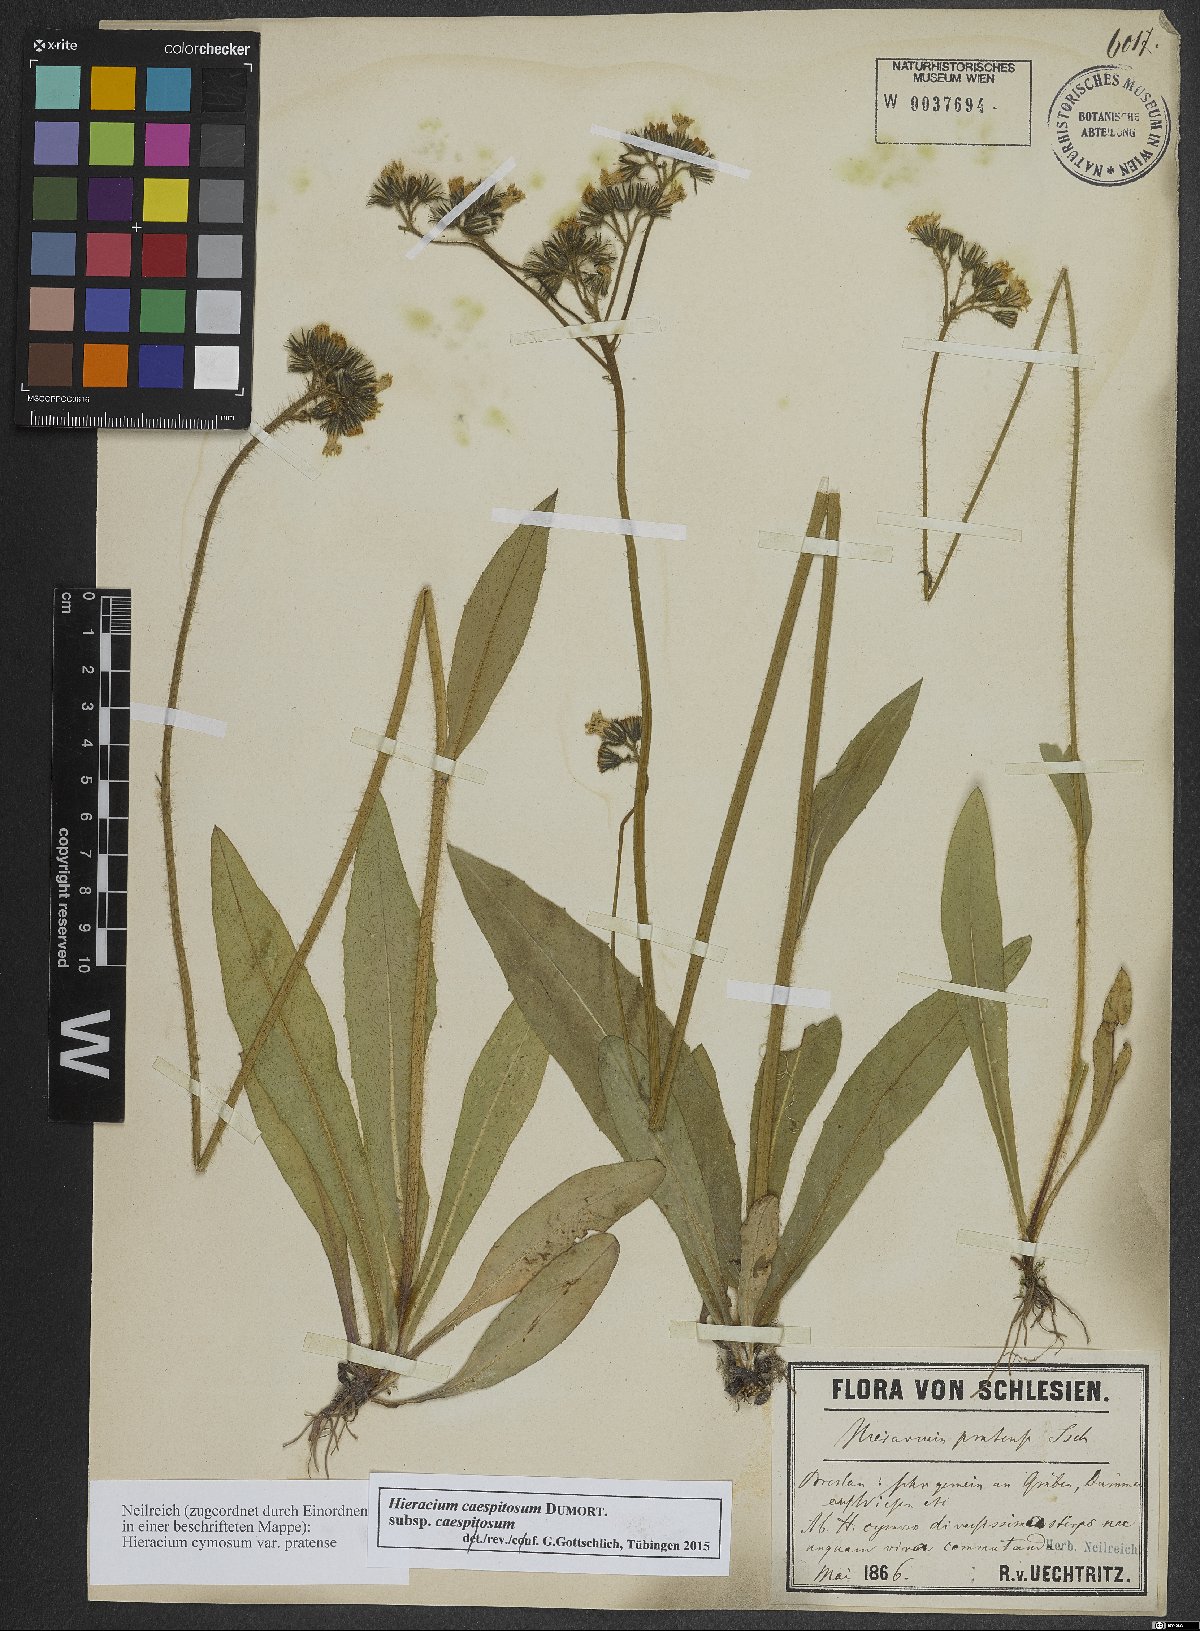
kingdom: Plantae
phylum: Tracheophyta
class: Magnoliopsida
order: Asterales
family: Asteraceae
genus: Pilosella
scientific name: Pilosella caespitosa
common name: Yellow fox-and-cubs
